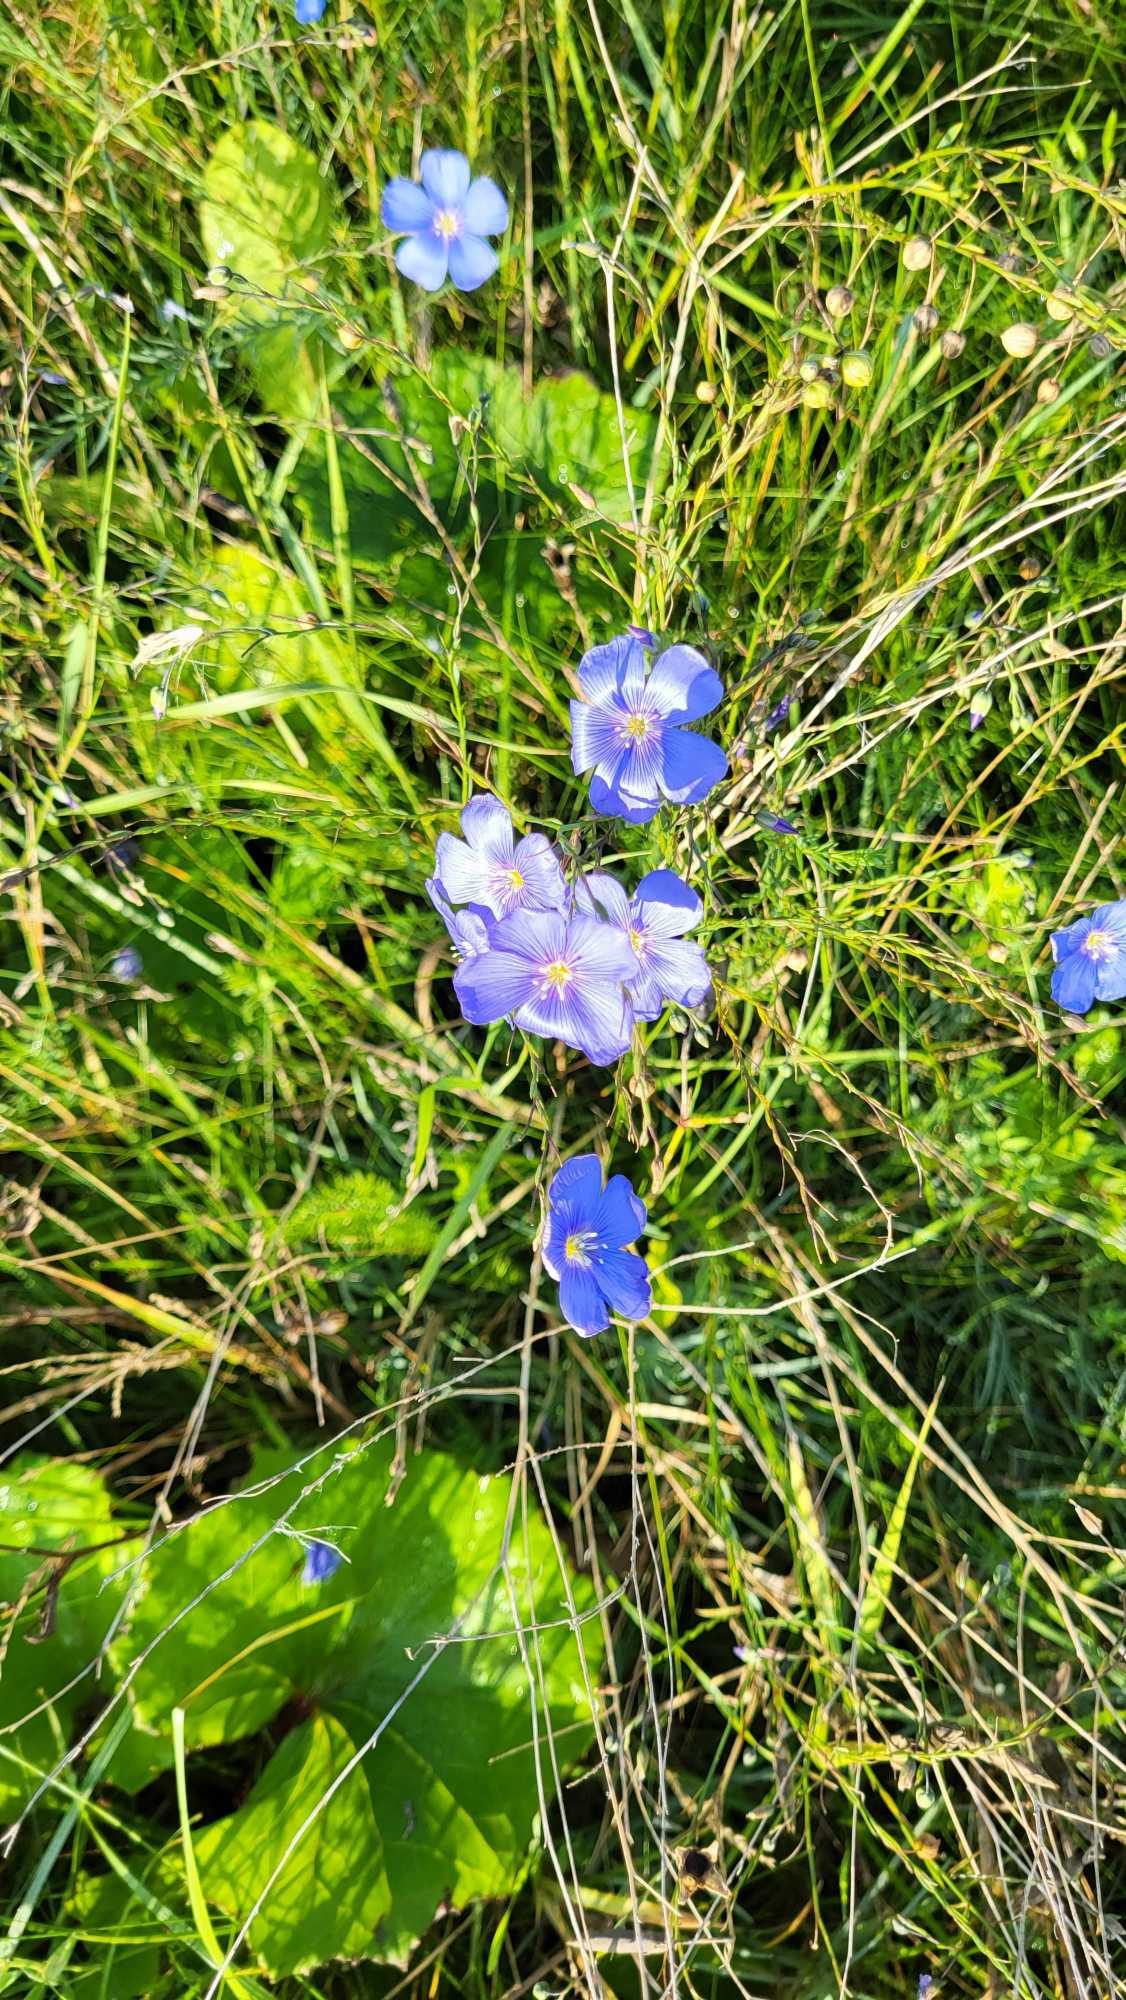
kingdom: Plantae
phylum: Tracheophyta
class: Magnoliopsida
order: Malpighiales
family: Linaceae
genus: Linum
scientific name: Linum austriacum
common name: Østrigsk hør
